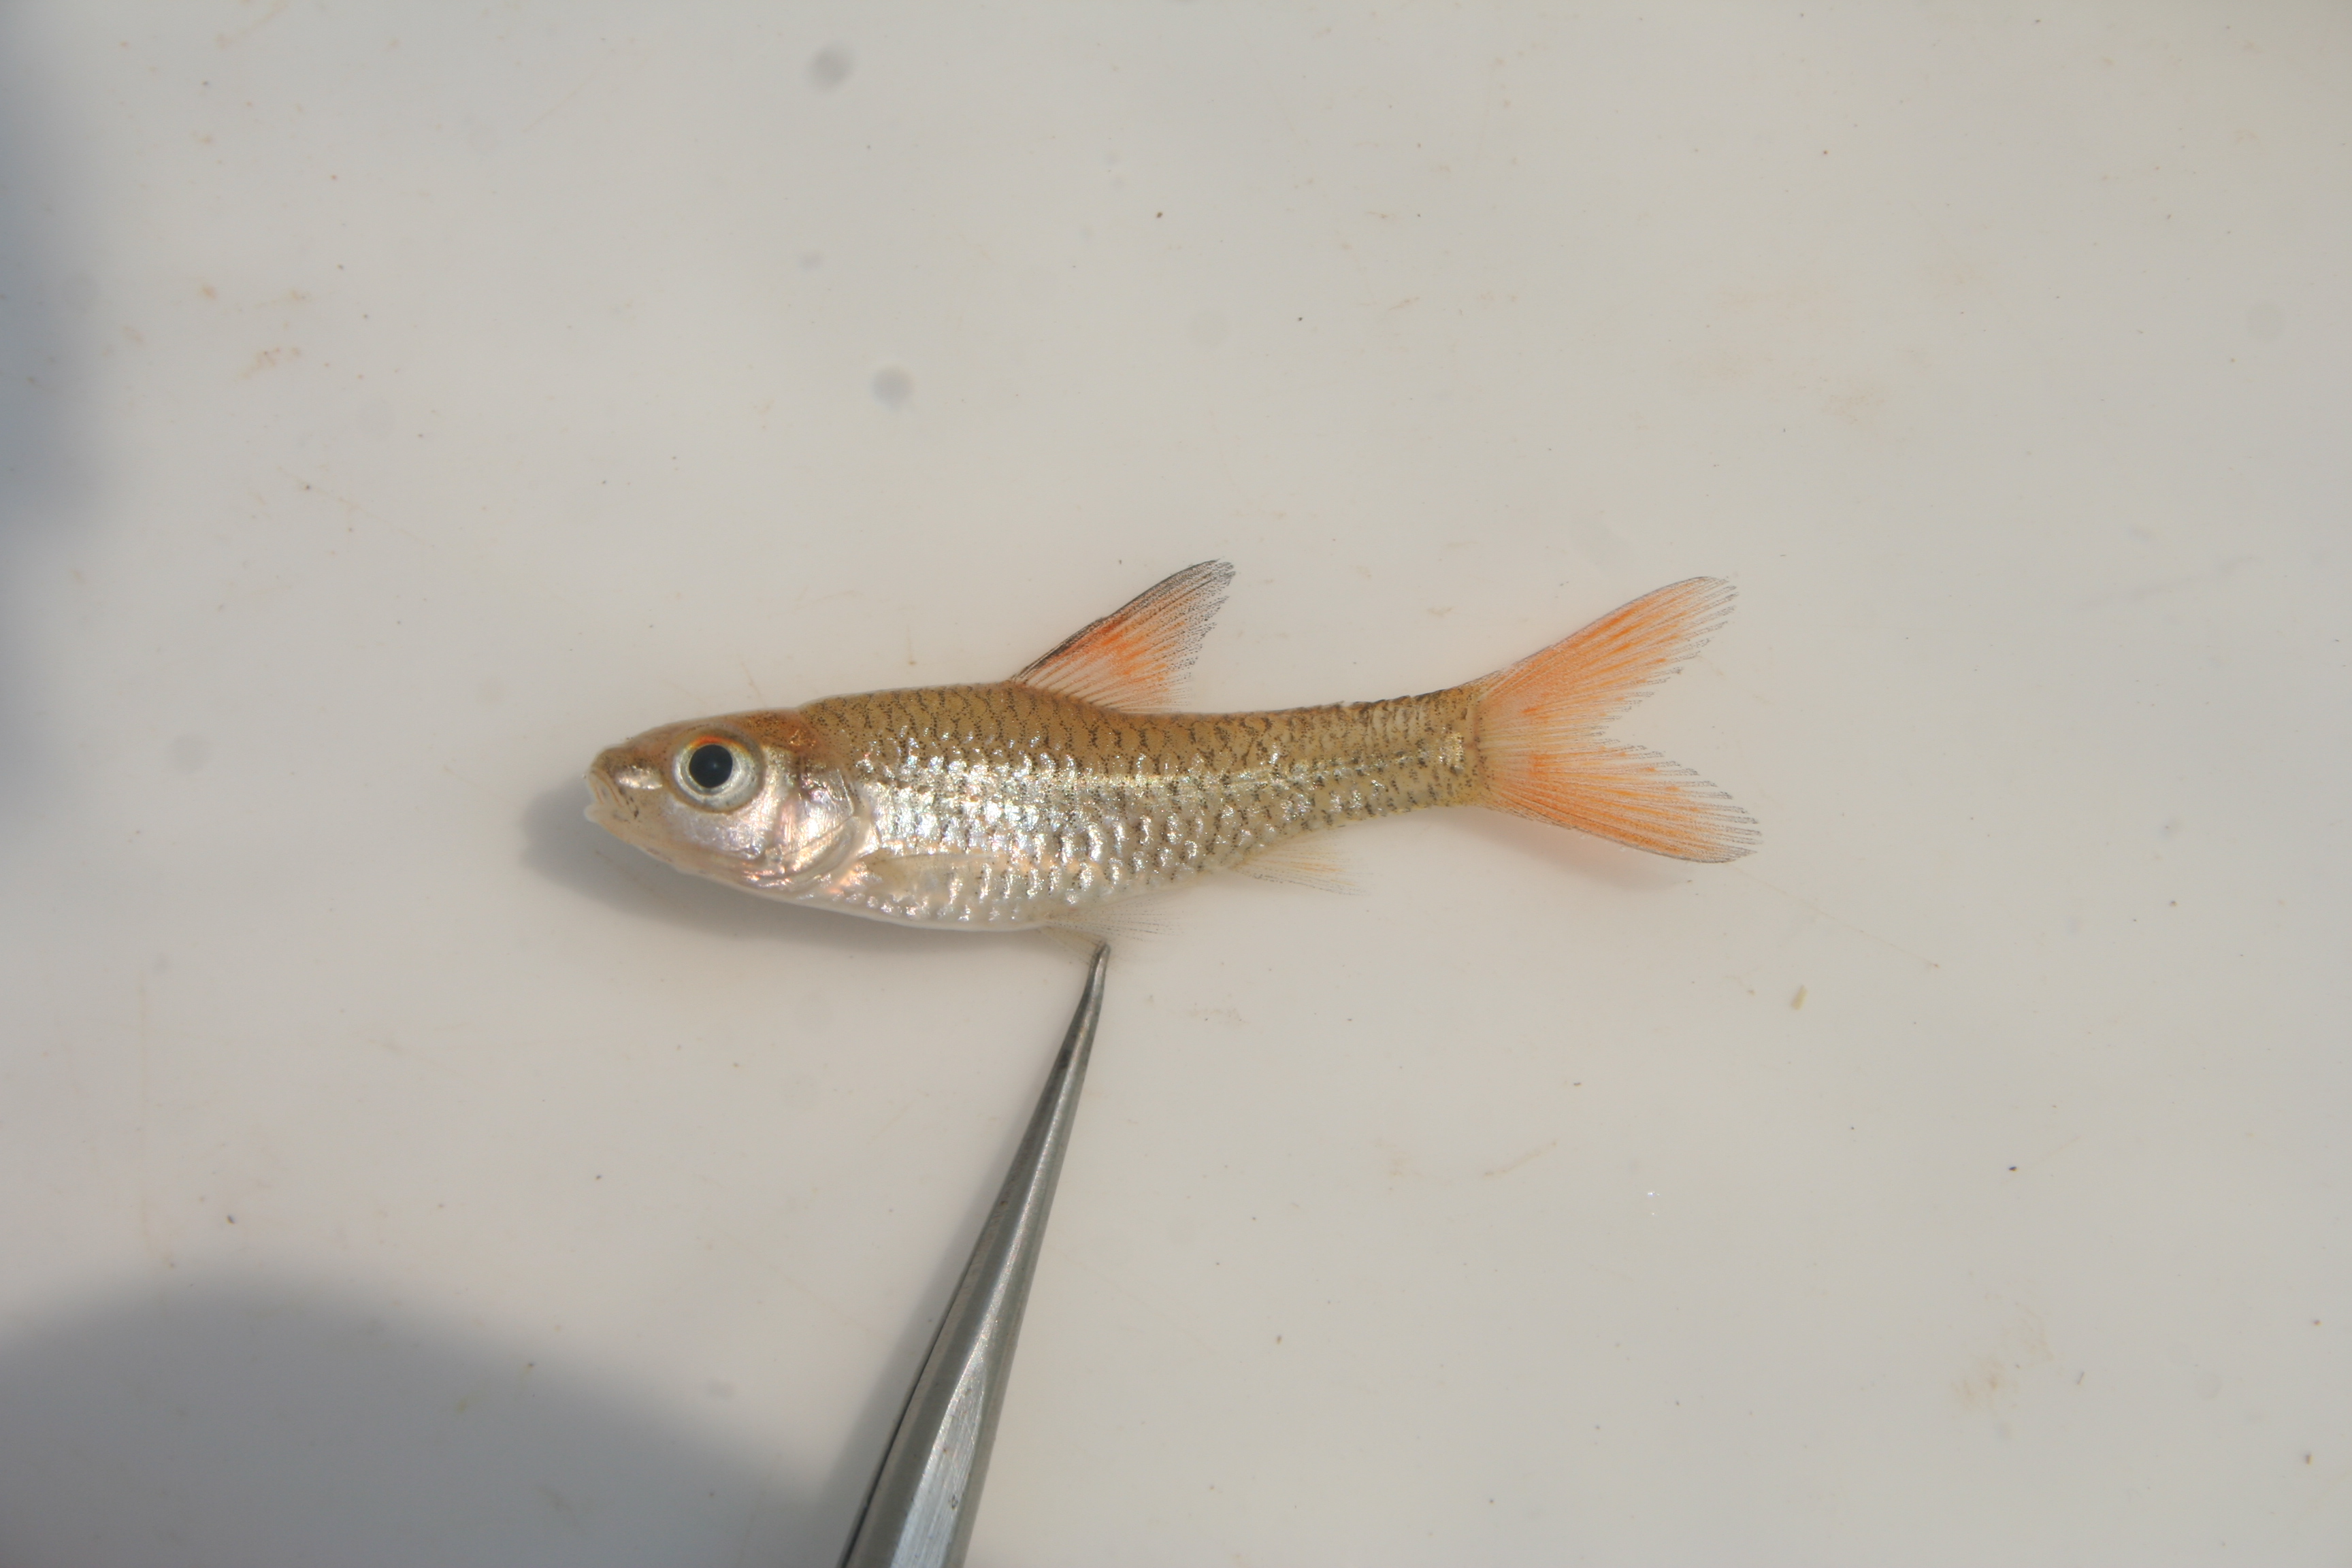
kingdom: Animalia
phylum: Chordata
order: Cypriniformes
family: Cyprinidae
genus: Barbus
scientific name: Barbus
